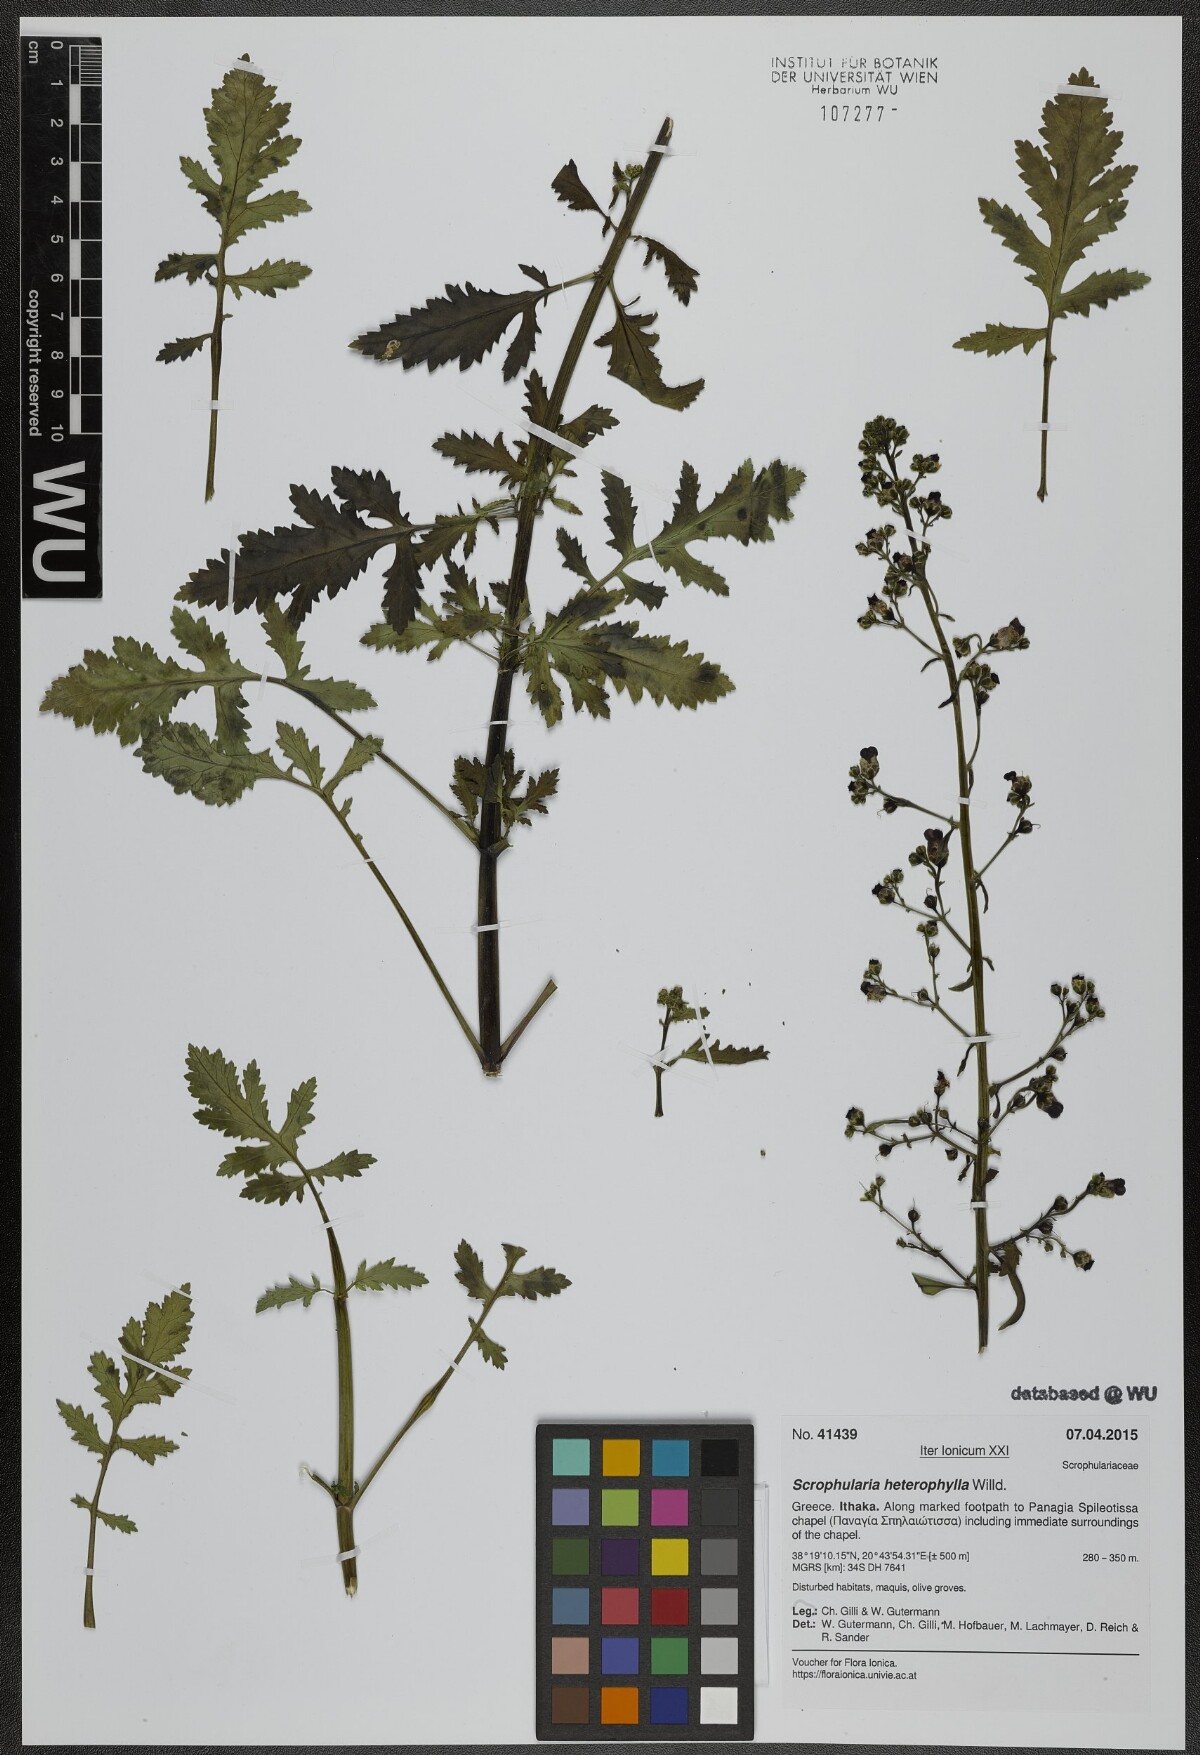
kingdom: Plantae
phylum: Tracheophyta
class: Magnoliopsida
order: Lamiales
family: Scrophulariaceae
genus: Scrophularia
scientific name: Scrophularia heterophylla
